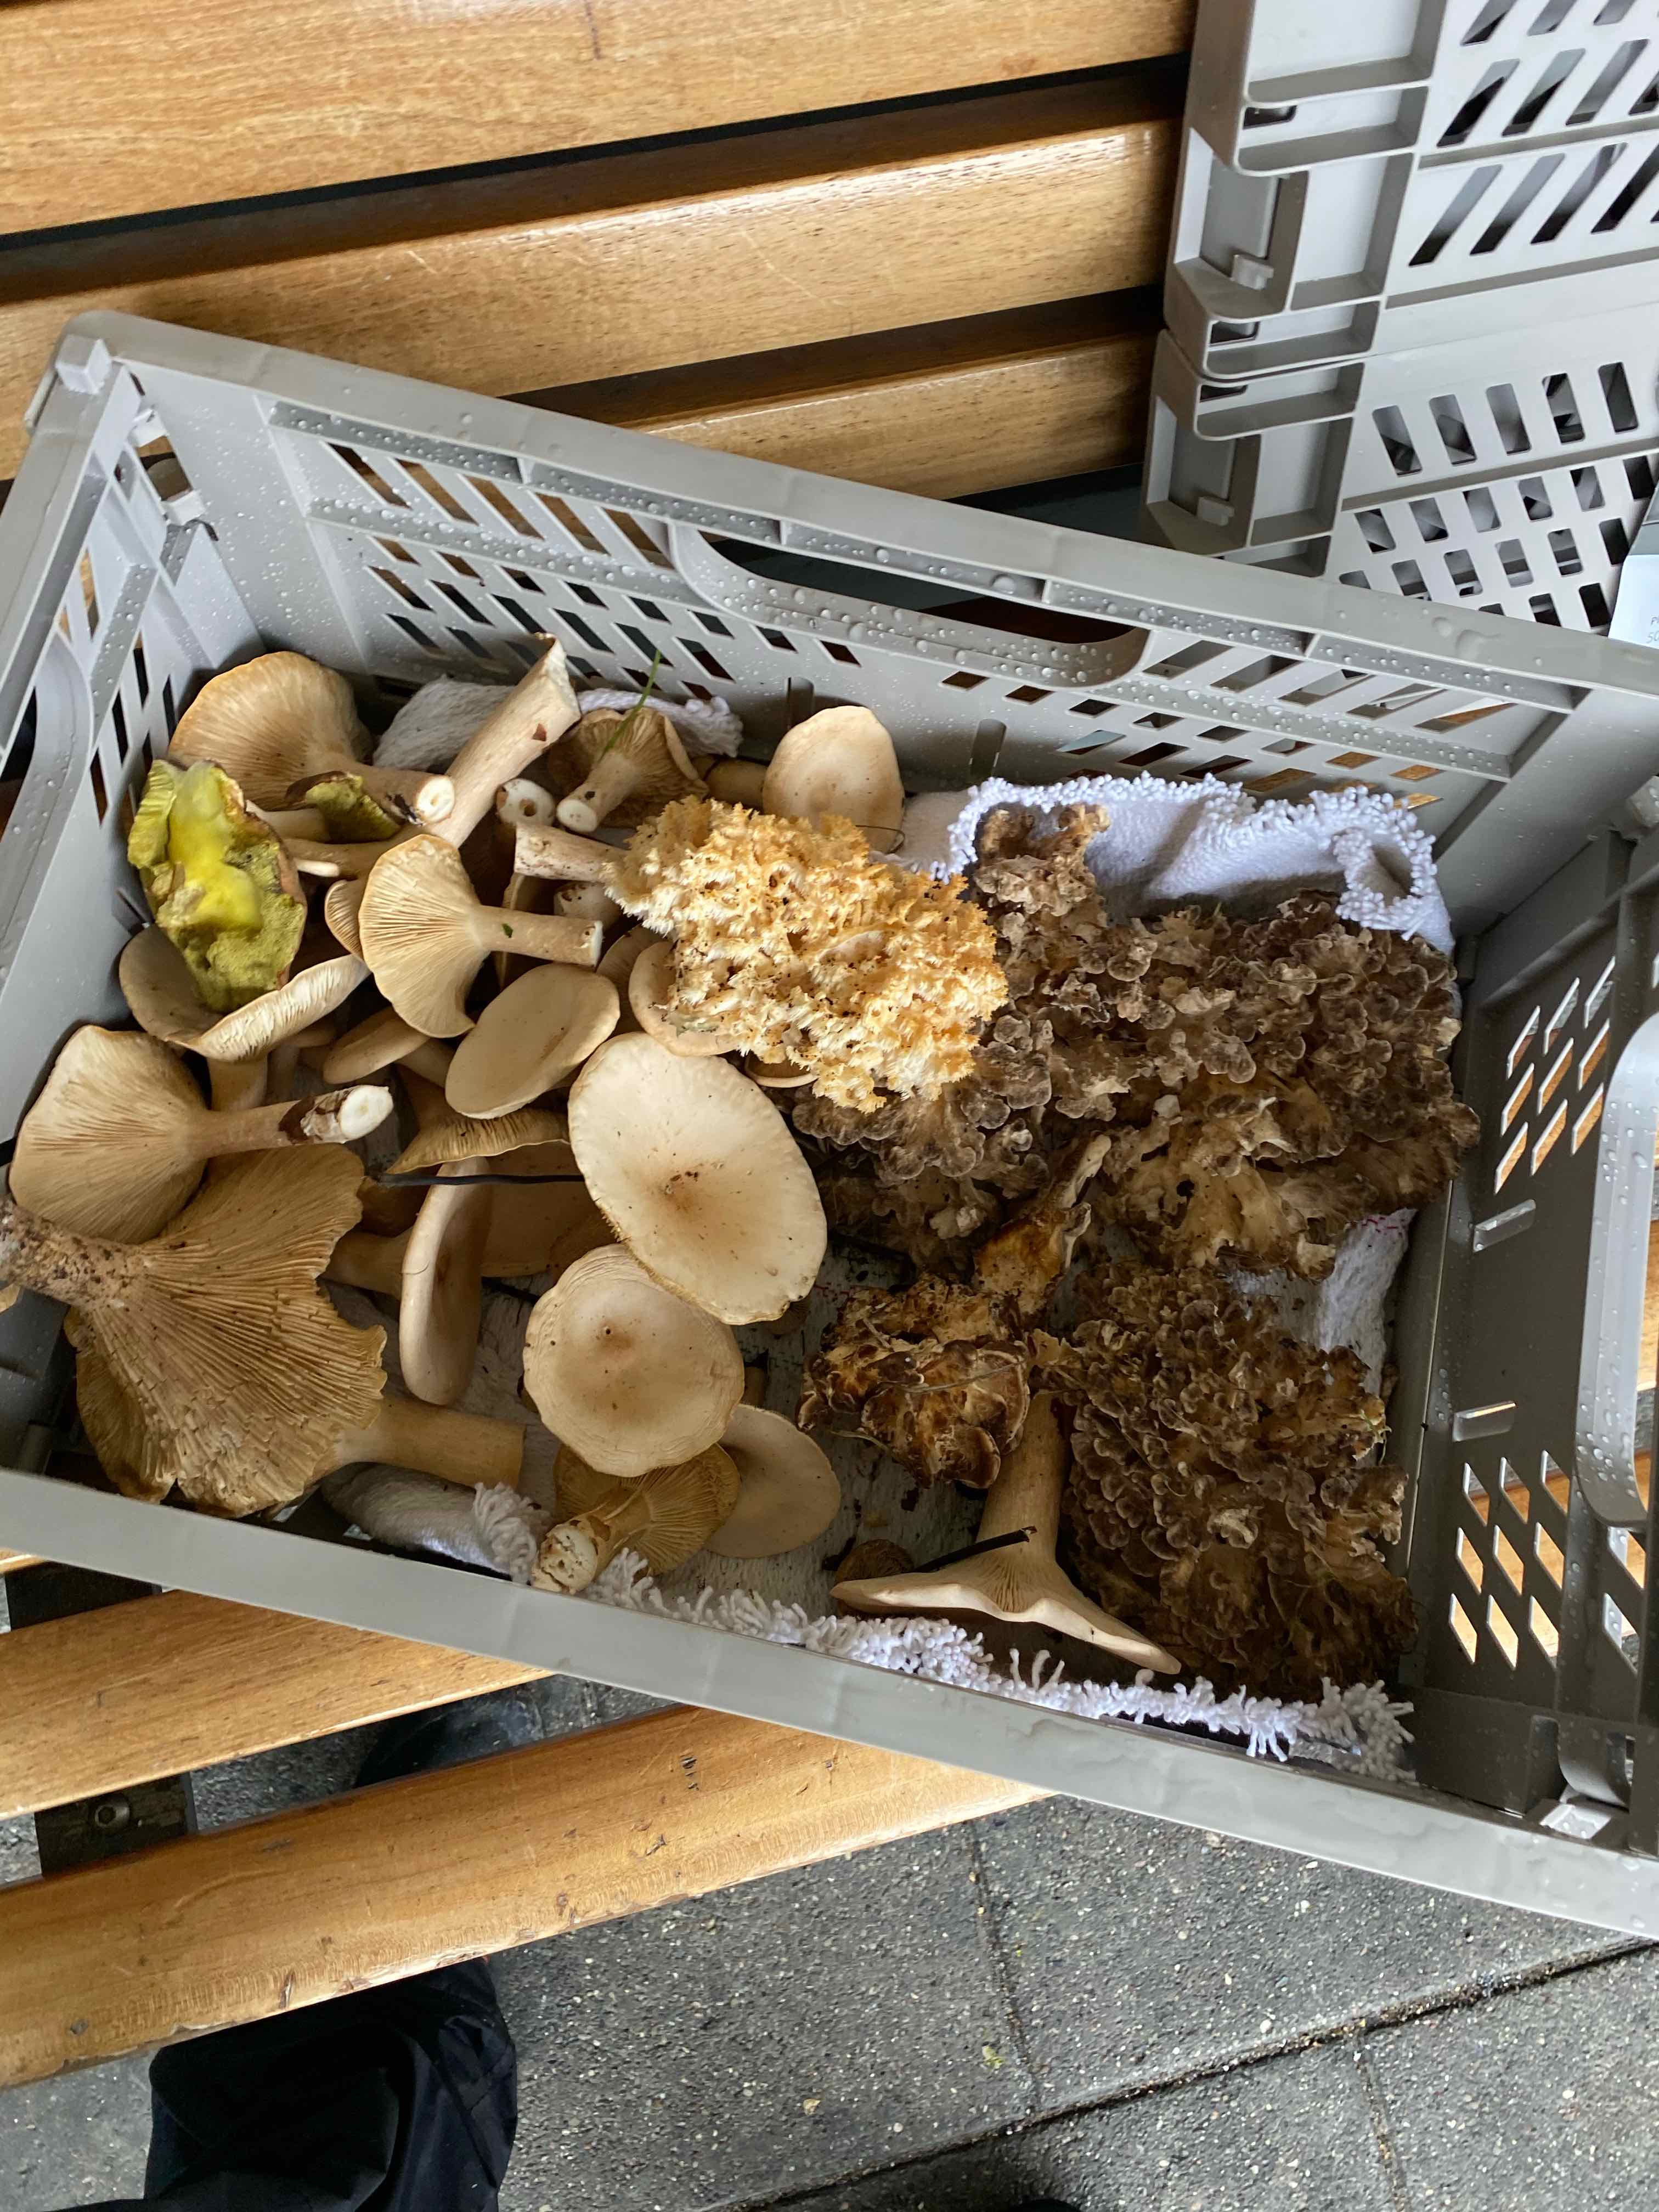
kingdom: Fungi
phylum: Basidiomycota
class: Agaricomycetes
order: Agaricales
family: Tricholomataceae
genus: Infundibulicybe
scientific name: Infundibulicybe geotropa
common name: stor tragthat
